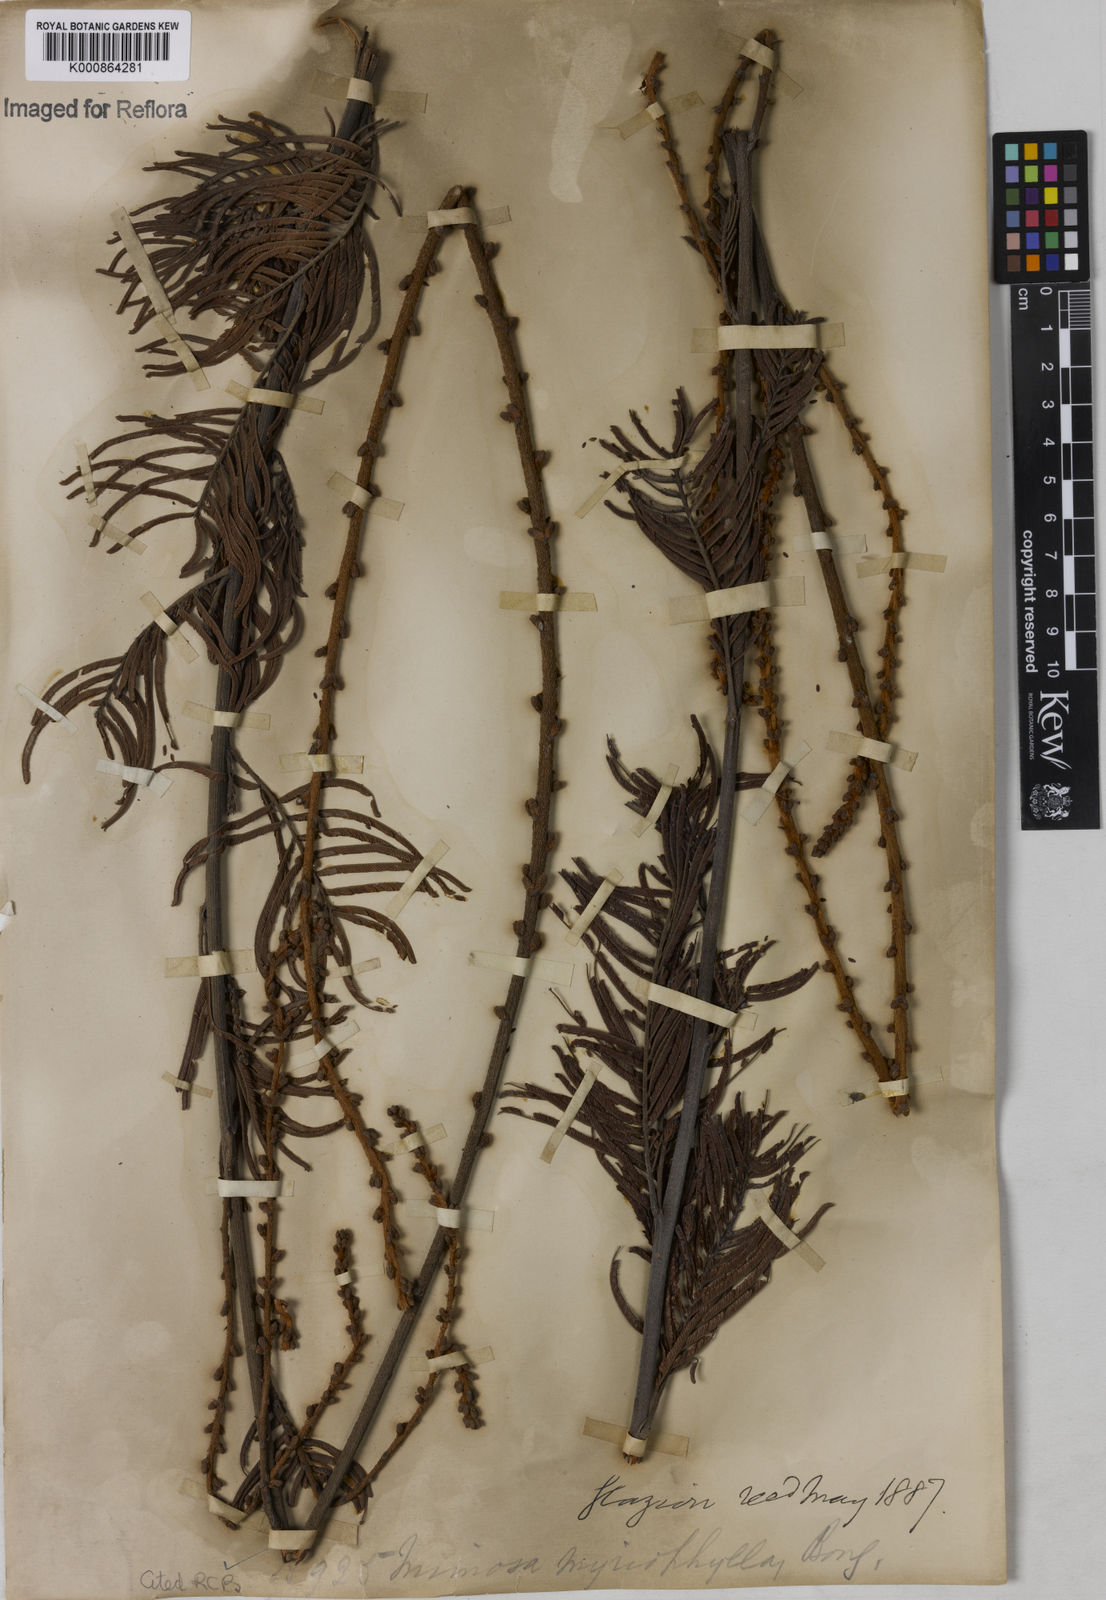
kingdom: Plantae
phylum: Tracheophyta
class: Magnoliopsida
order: Fabales
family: Fabaceae
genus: Mimosa
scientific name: Mimosa
